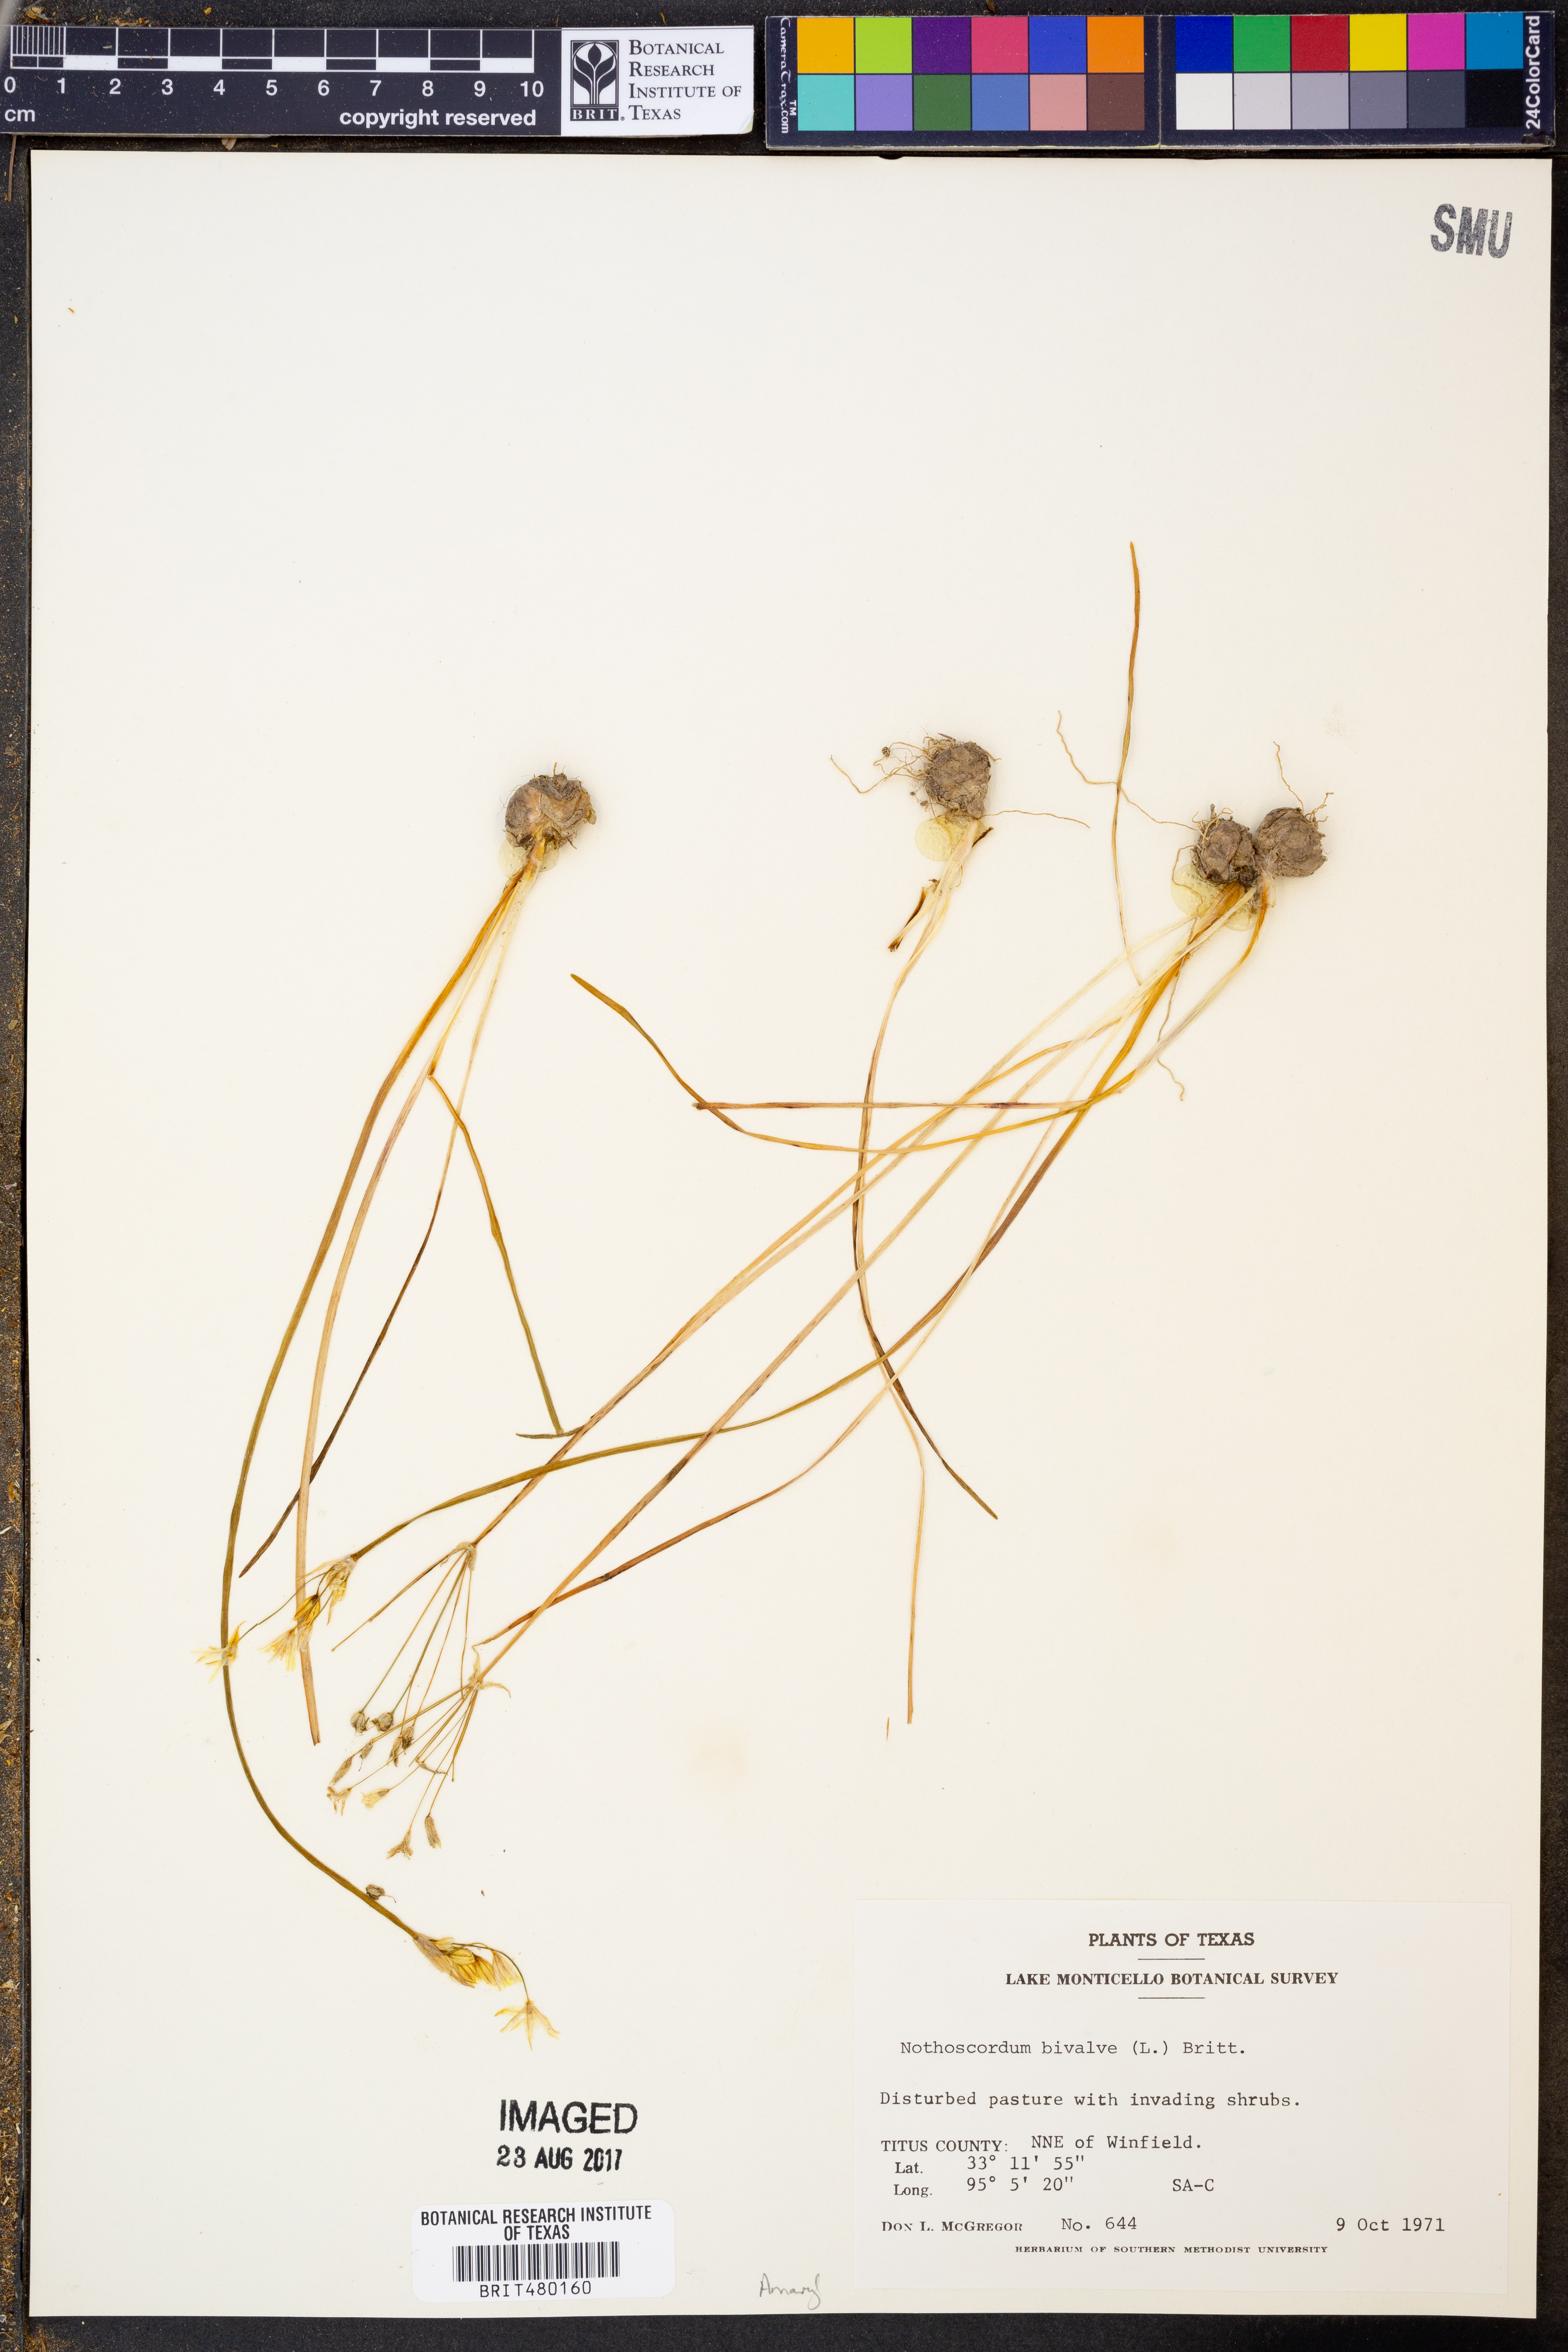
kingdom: Plantae
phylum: Tracheophyta
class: Liliopsida
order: Asparagales
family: Amaryllidaceae
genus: Nothoscordum
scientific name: Nothoscordum bivalve
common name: Crow-poison
